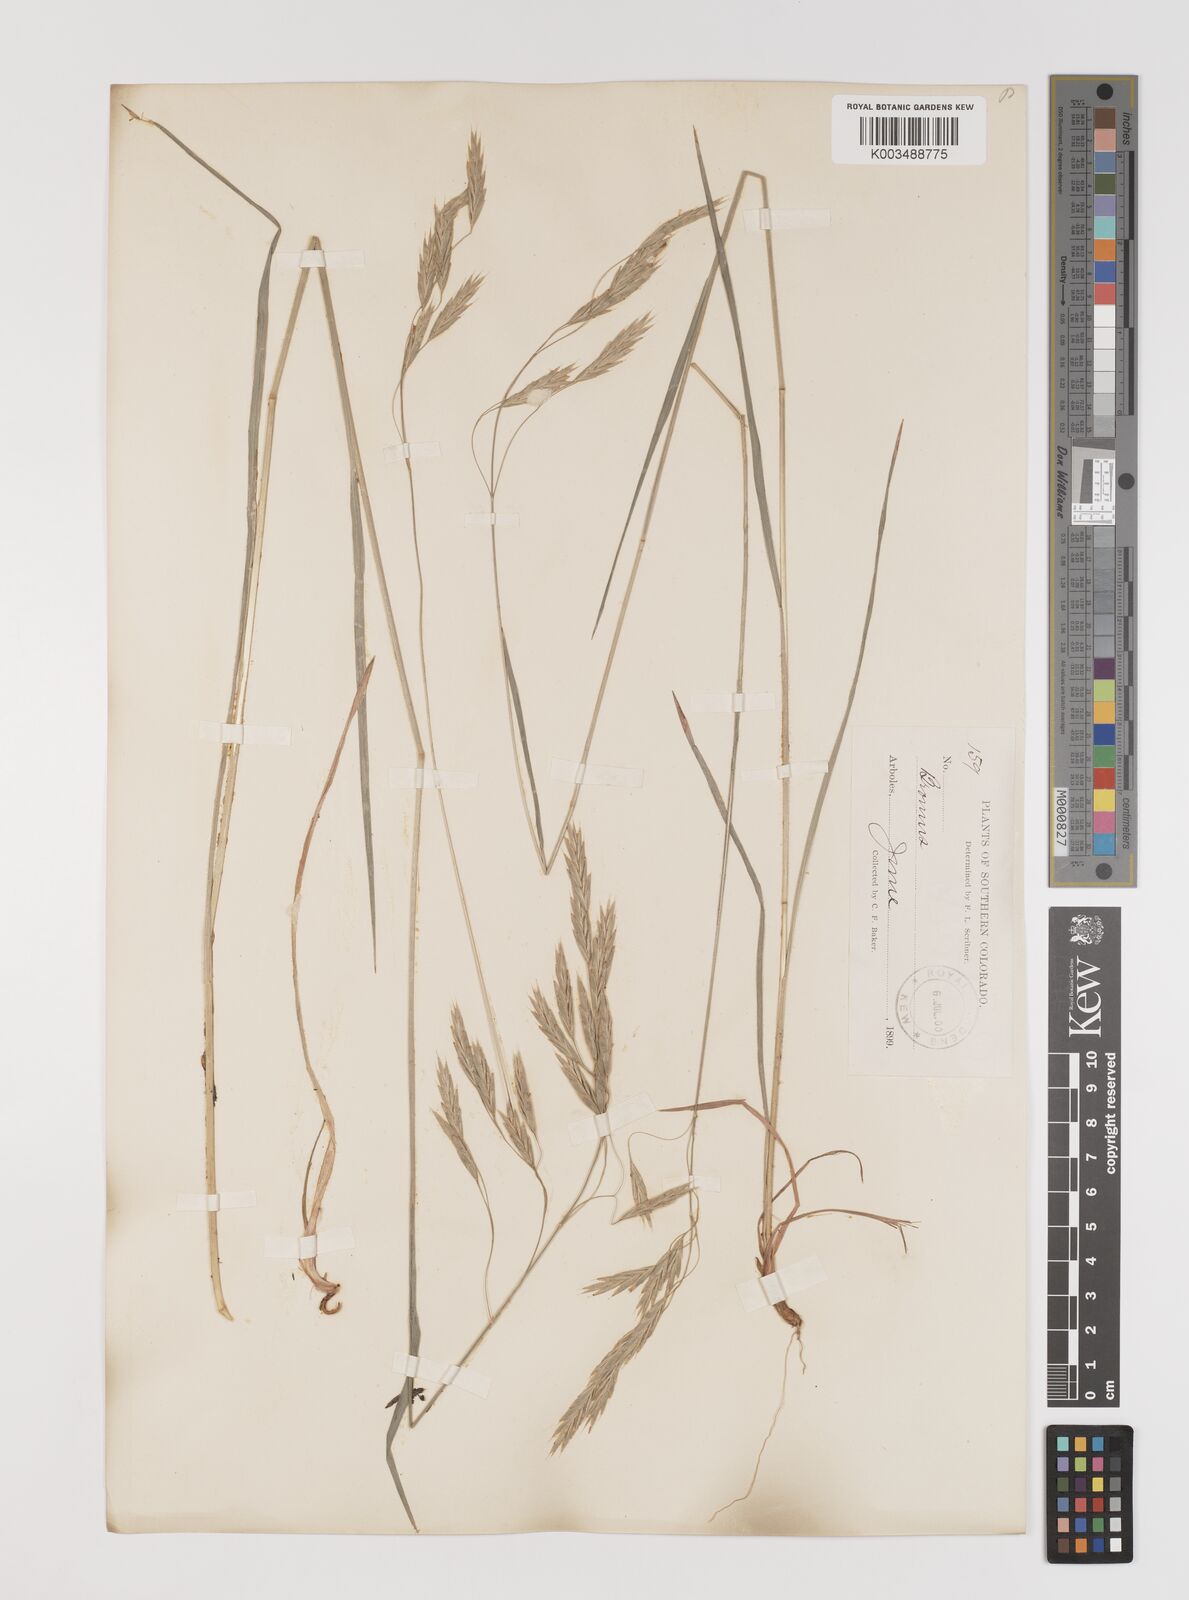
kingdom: Plantae
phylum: Tracheophyta
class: Liliopsida
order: Poales
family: Poaceae
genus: Bromus
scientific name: Bromus
